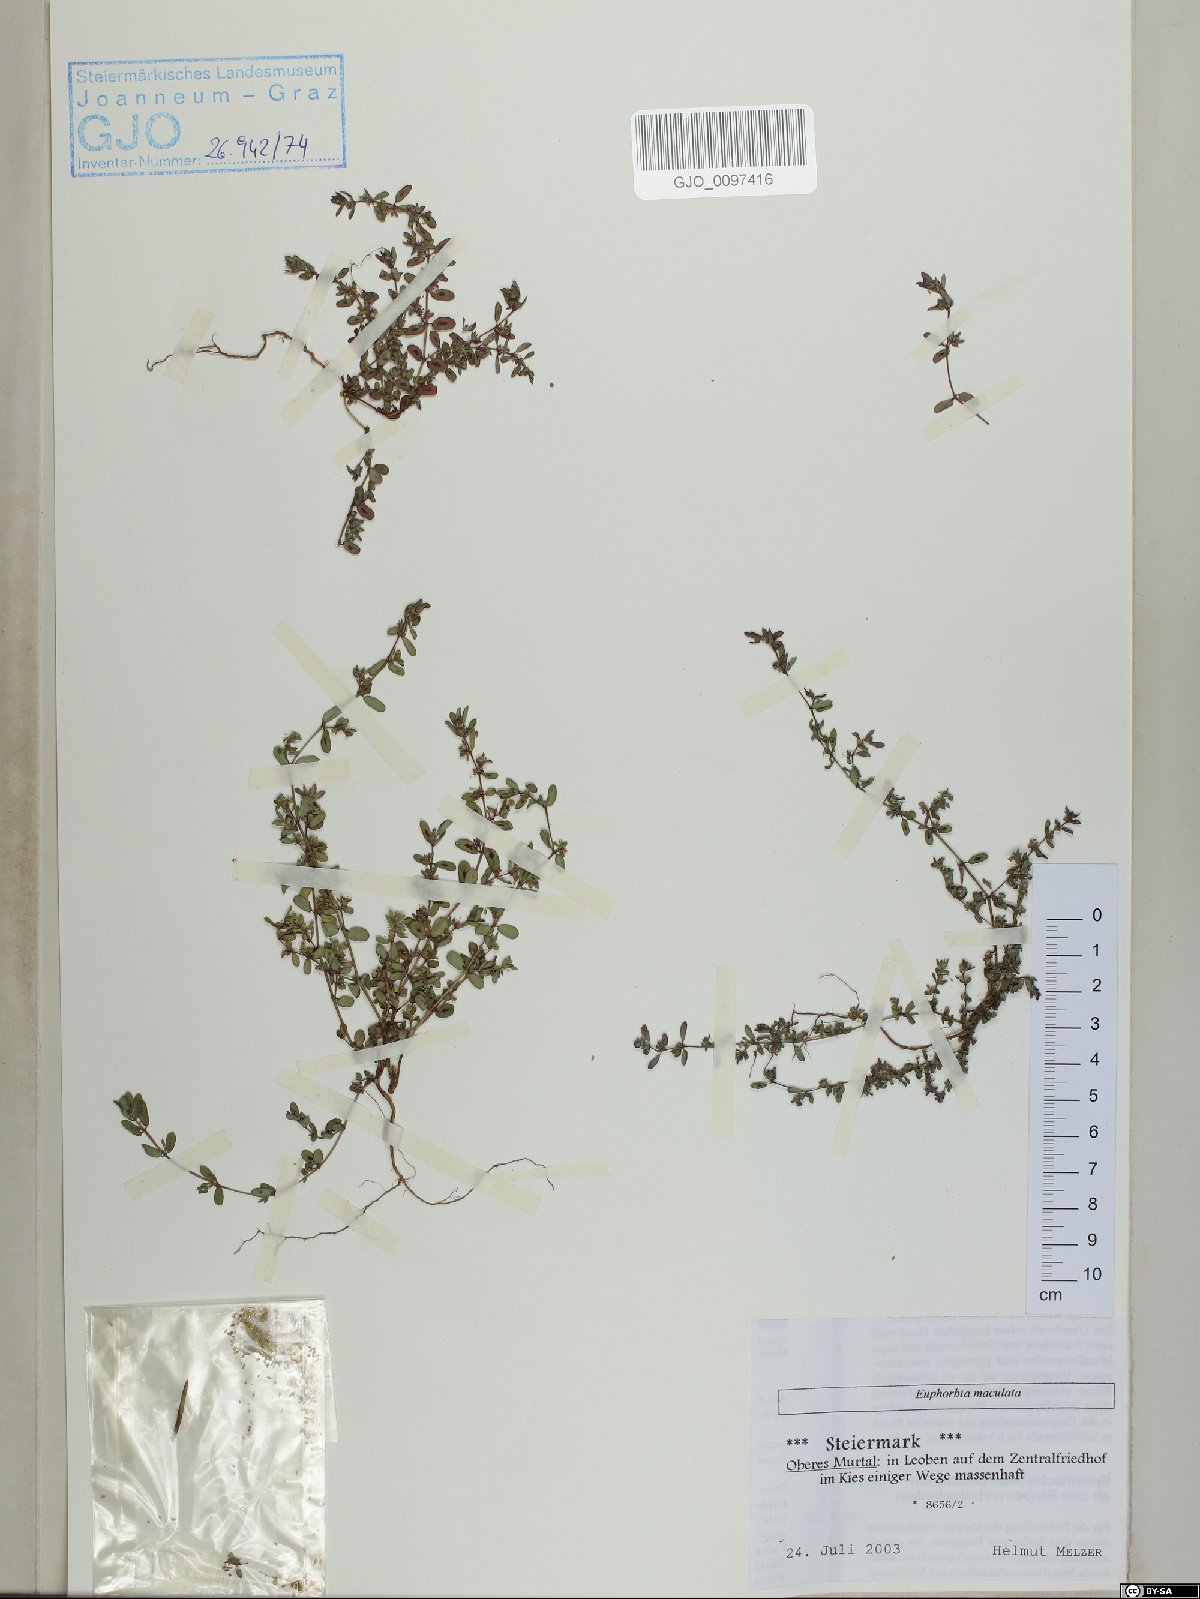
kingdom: Plantae
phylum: Tracheophyta
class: Magnoliopsida
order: Malpighiales
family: Euphorbiaceae
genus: Euphorbia
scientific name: Euphorbia maculata
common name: Spotted spurge
